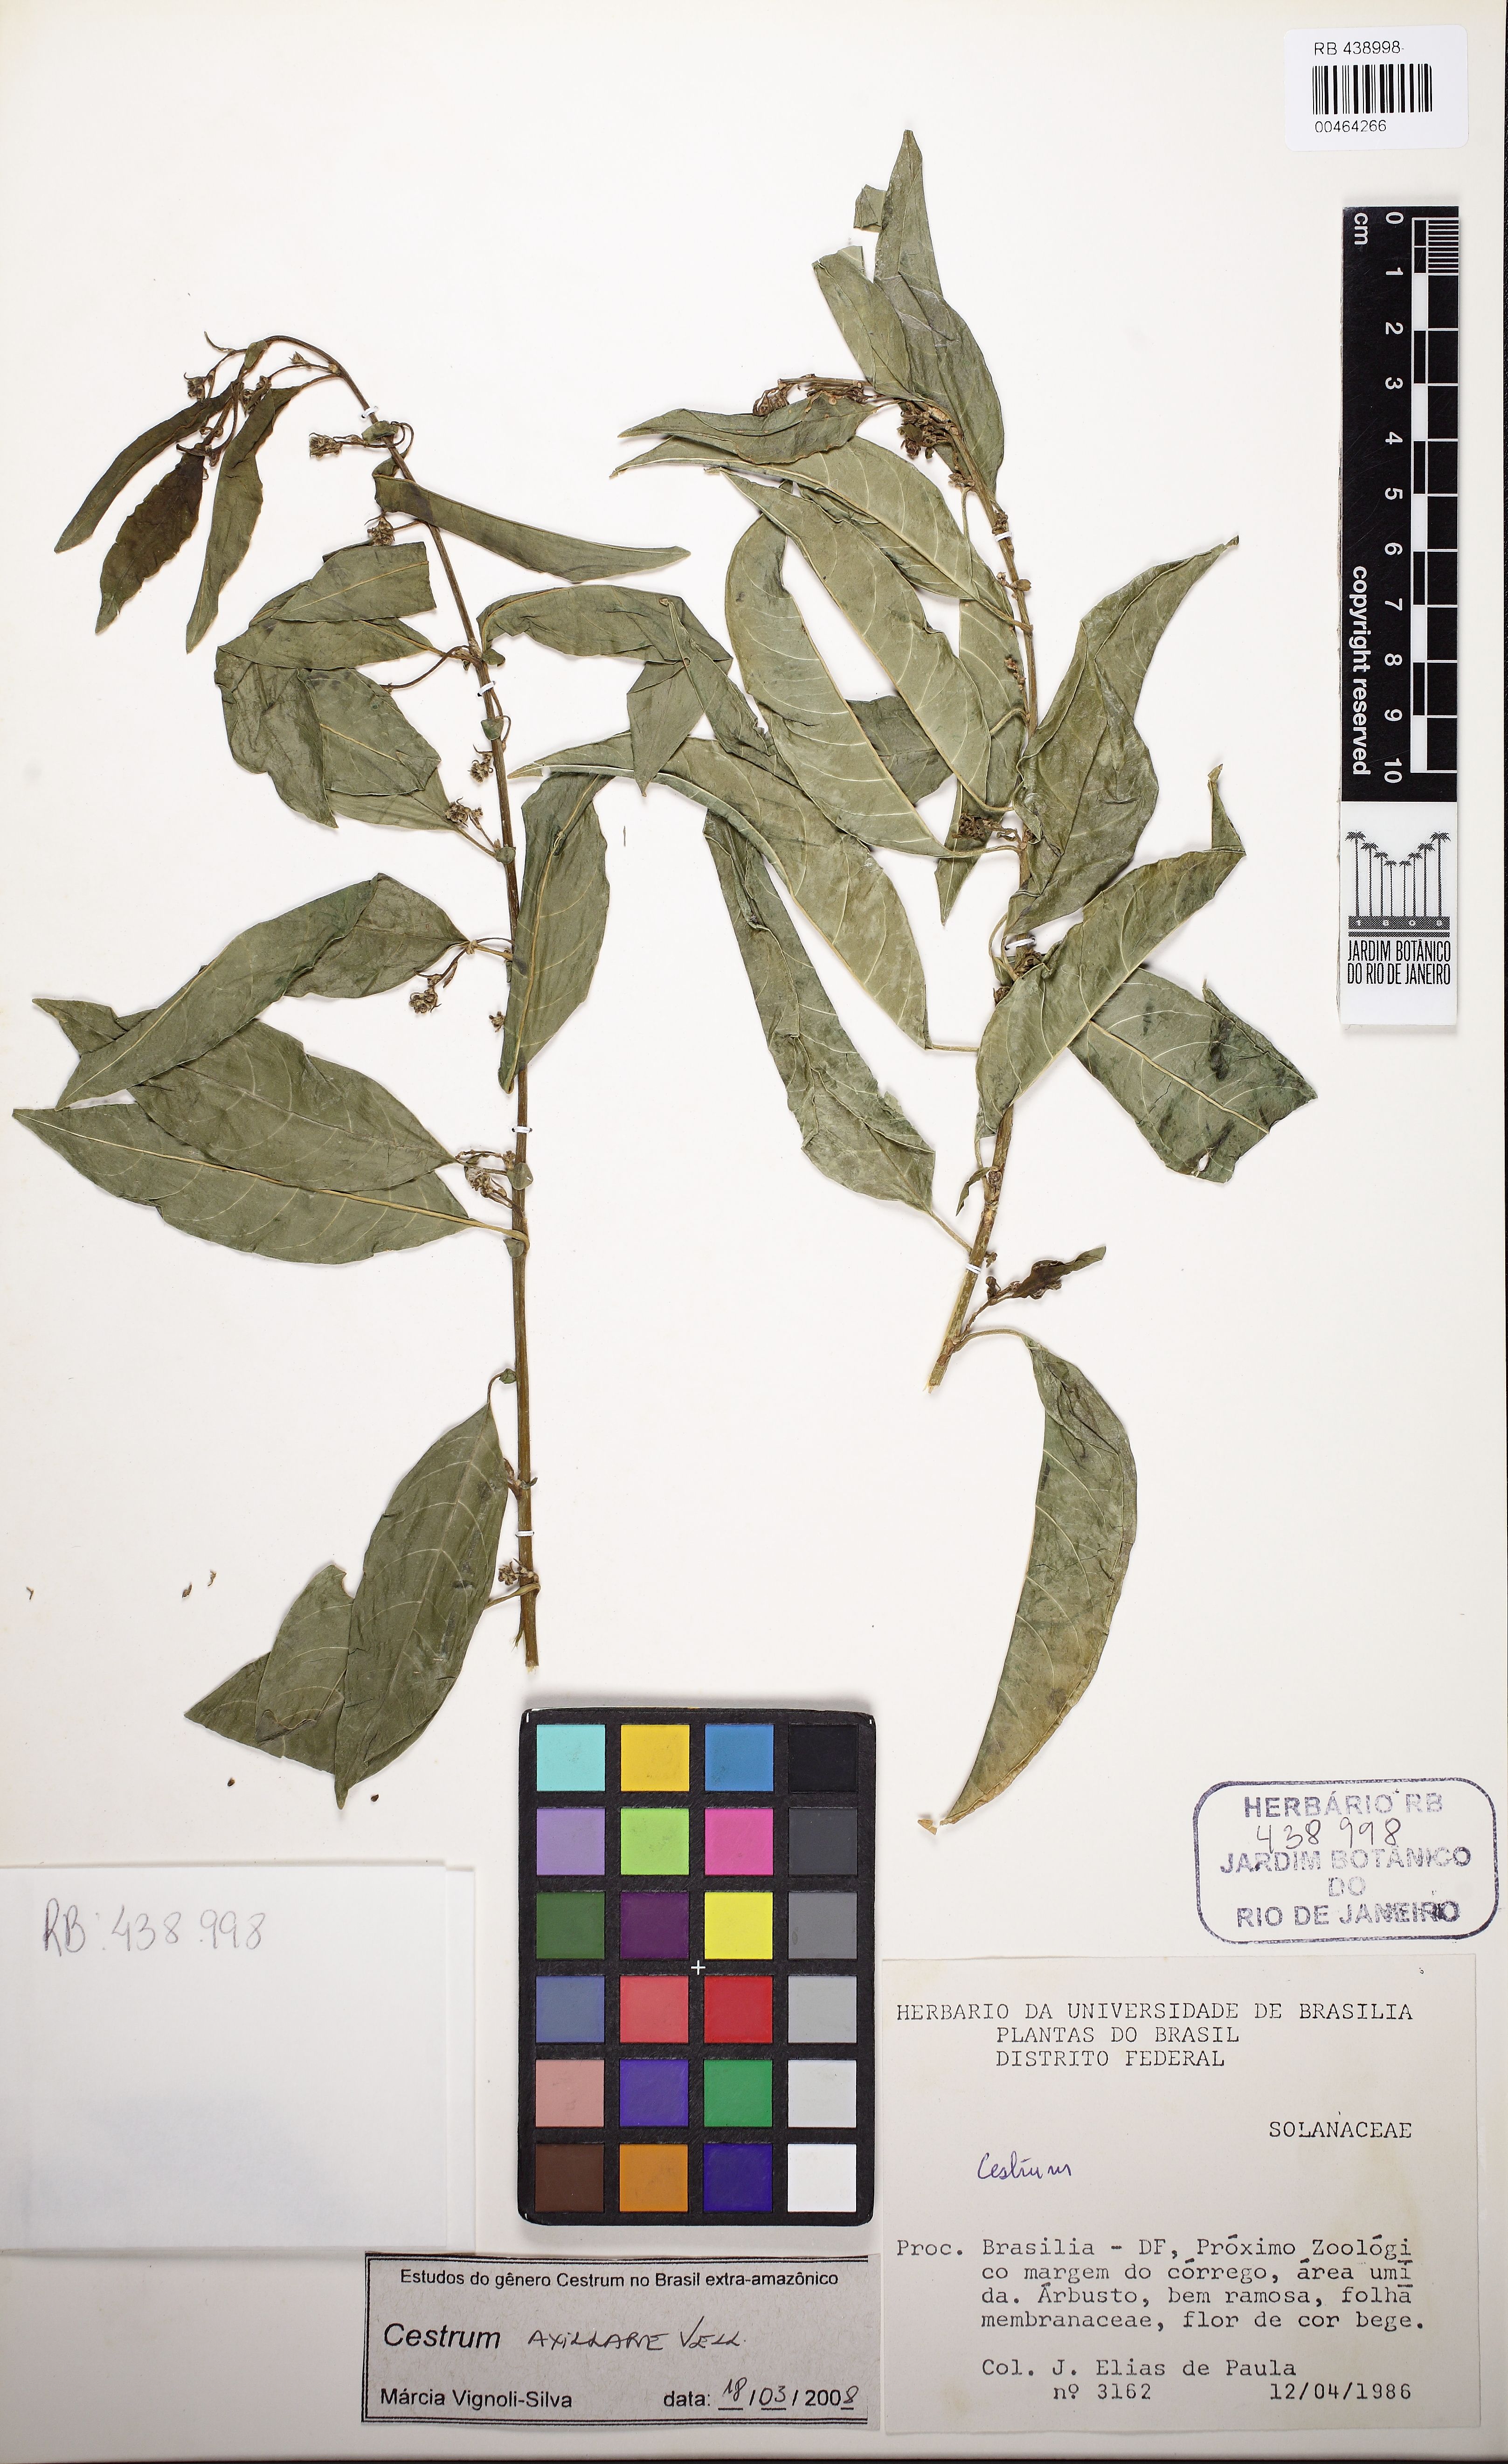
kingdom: Plantae
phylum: Tracheophyta
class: Magnoliopsida
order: Solanales
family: Solanaceae
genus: Cestrum
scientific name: Cestrum laevigatum
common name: Inkberry
